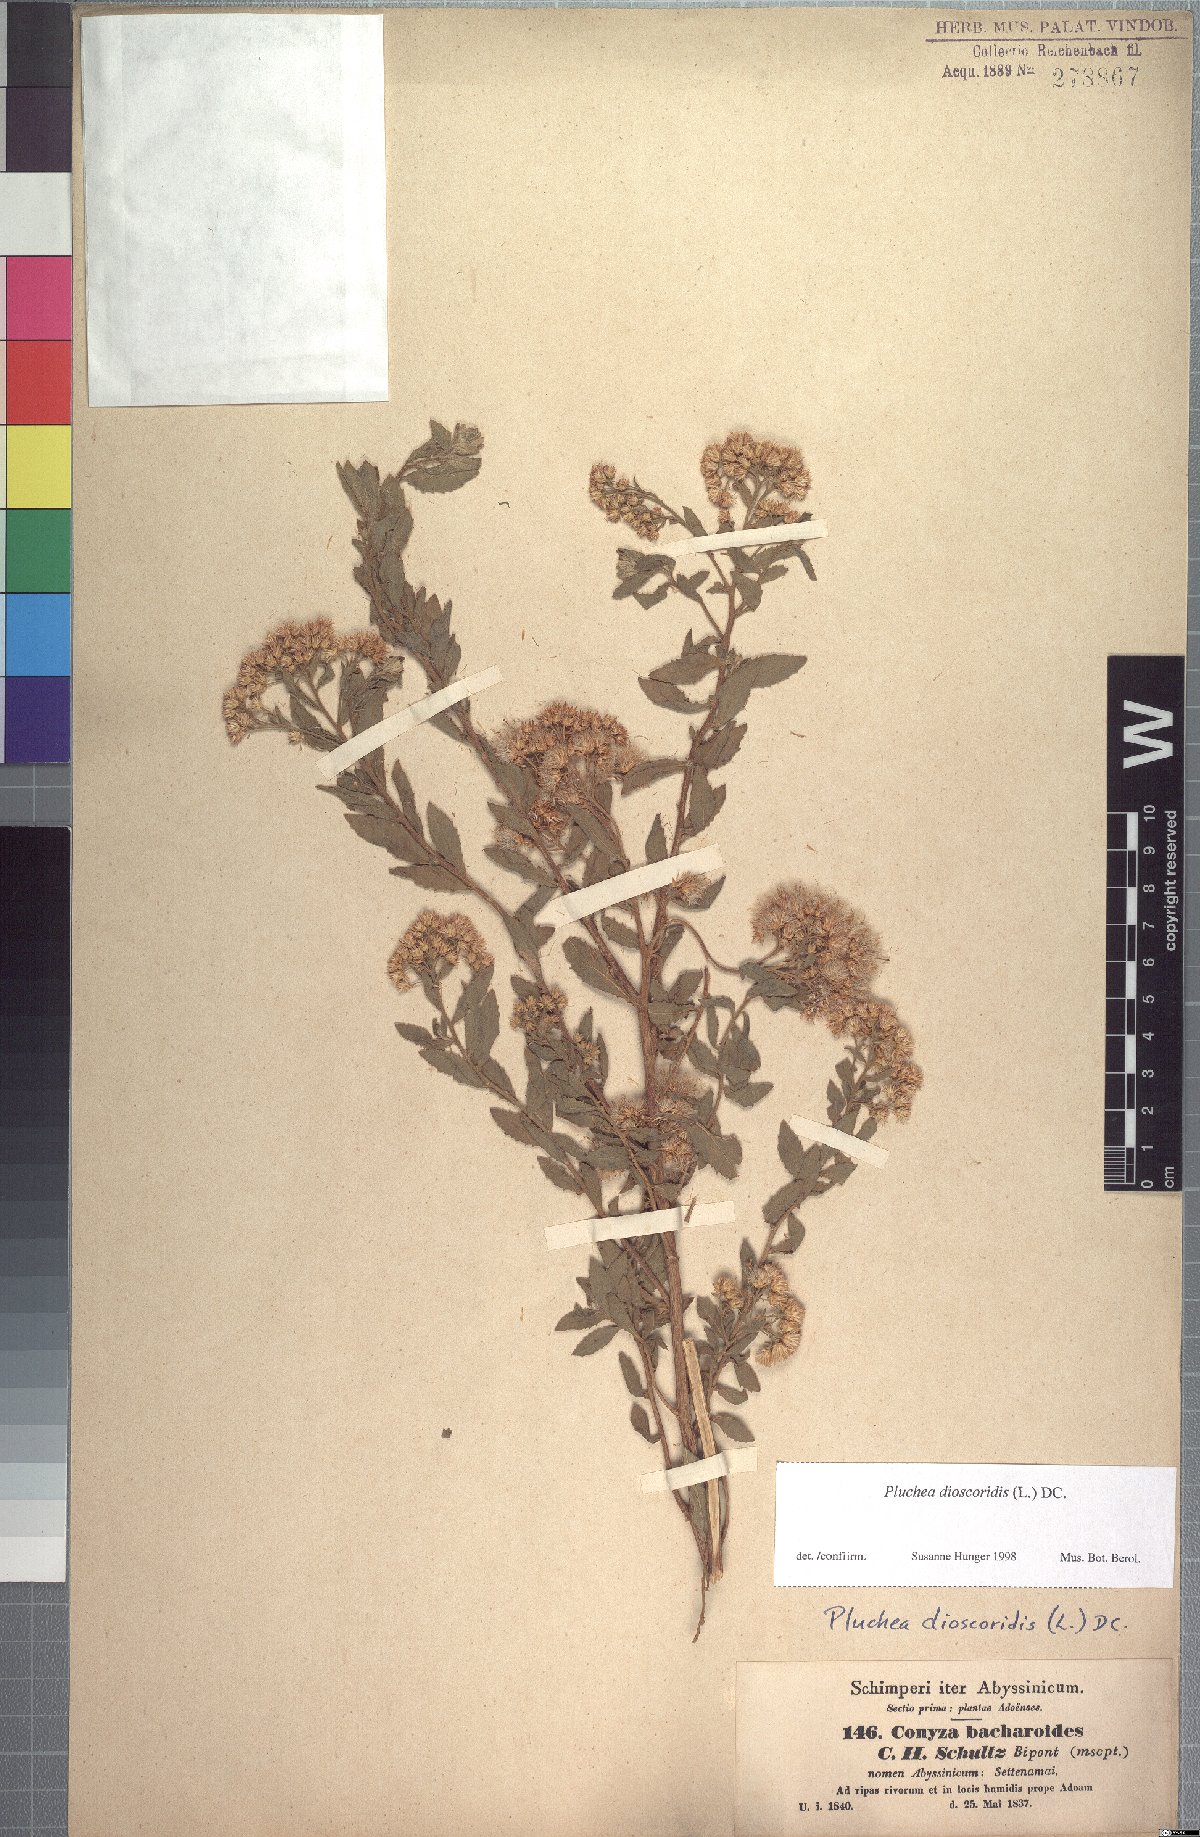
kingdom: Plantae
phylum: Tracheophyta
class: Magnoliopsida
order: Asterales
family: Asteraceae
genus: Pluchea
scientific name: Pluchea bojeri
